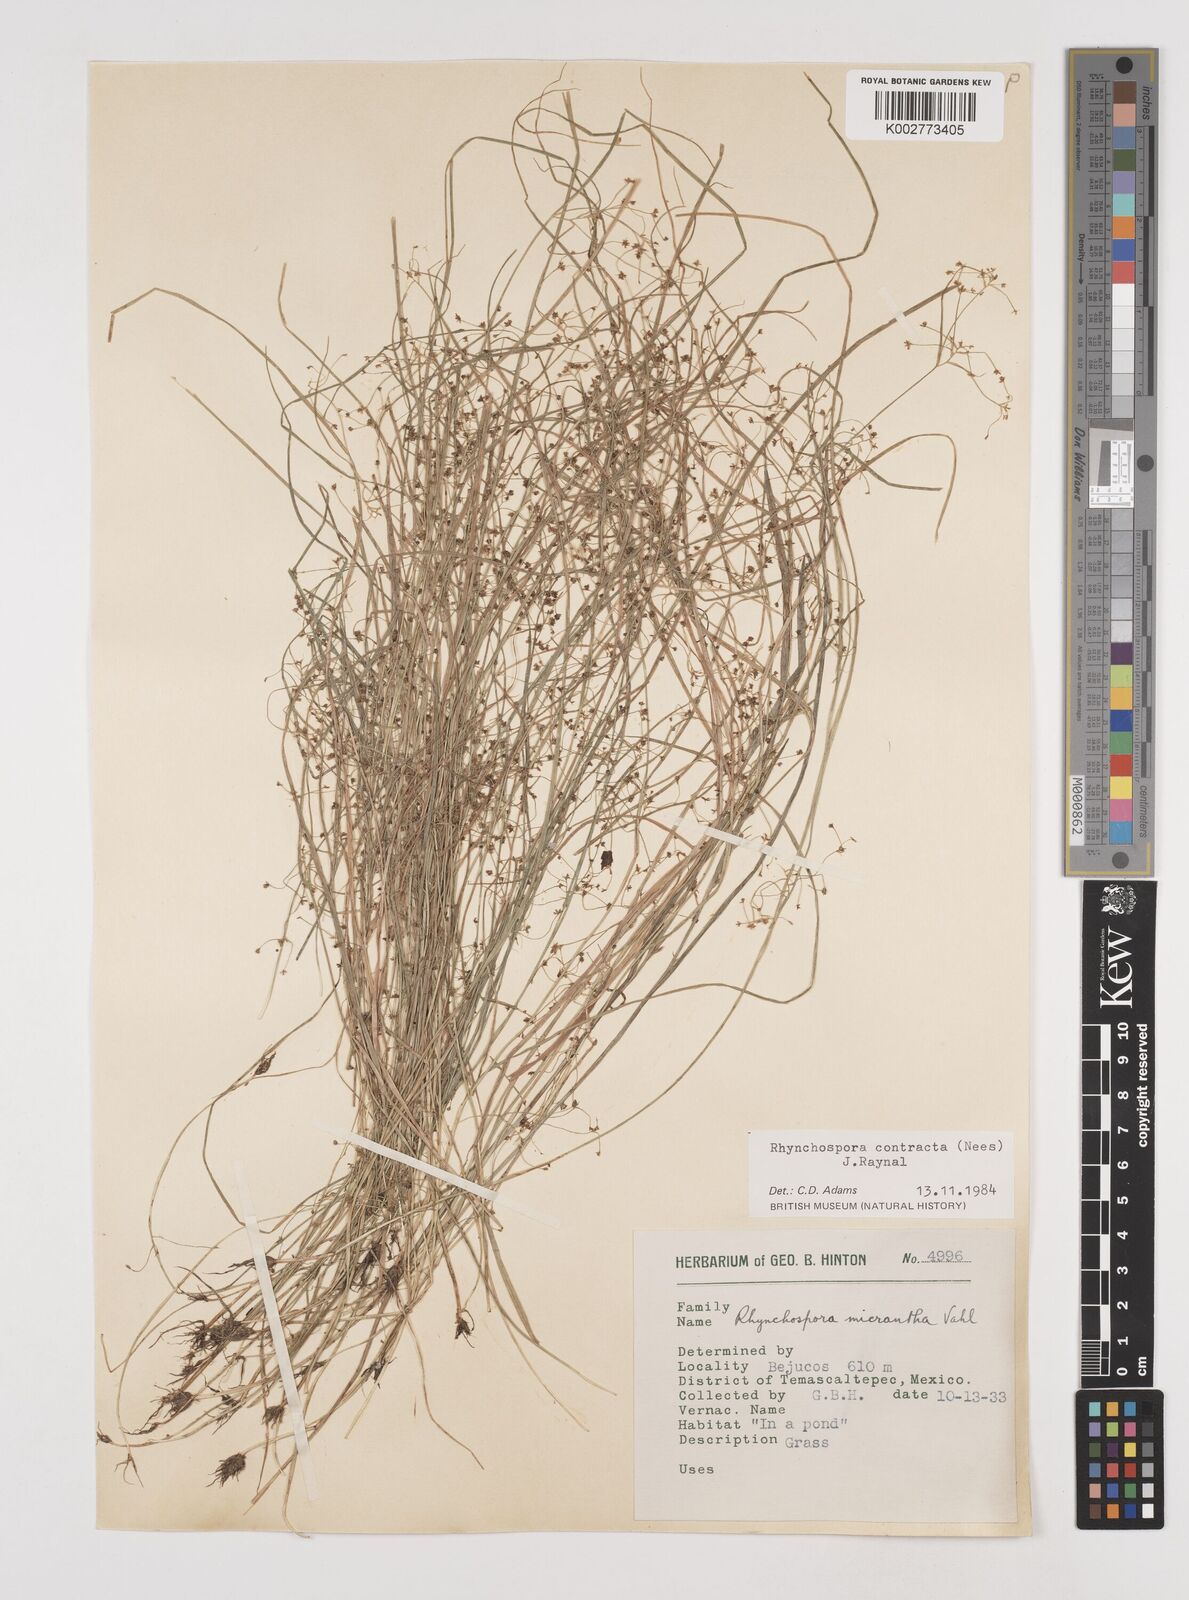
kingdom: Plantae
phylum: Tracheophyta
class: Liliopsida
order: Poales
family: Cyperaceae
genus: Rhynchospora
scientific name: Rhynchospora contracta
